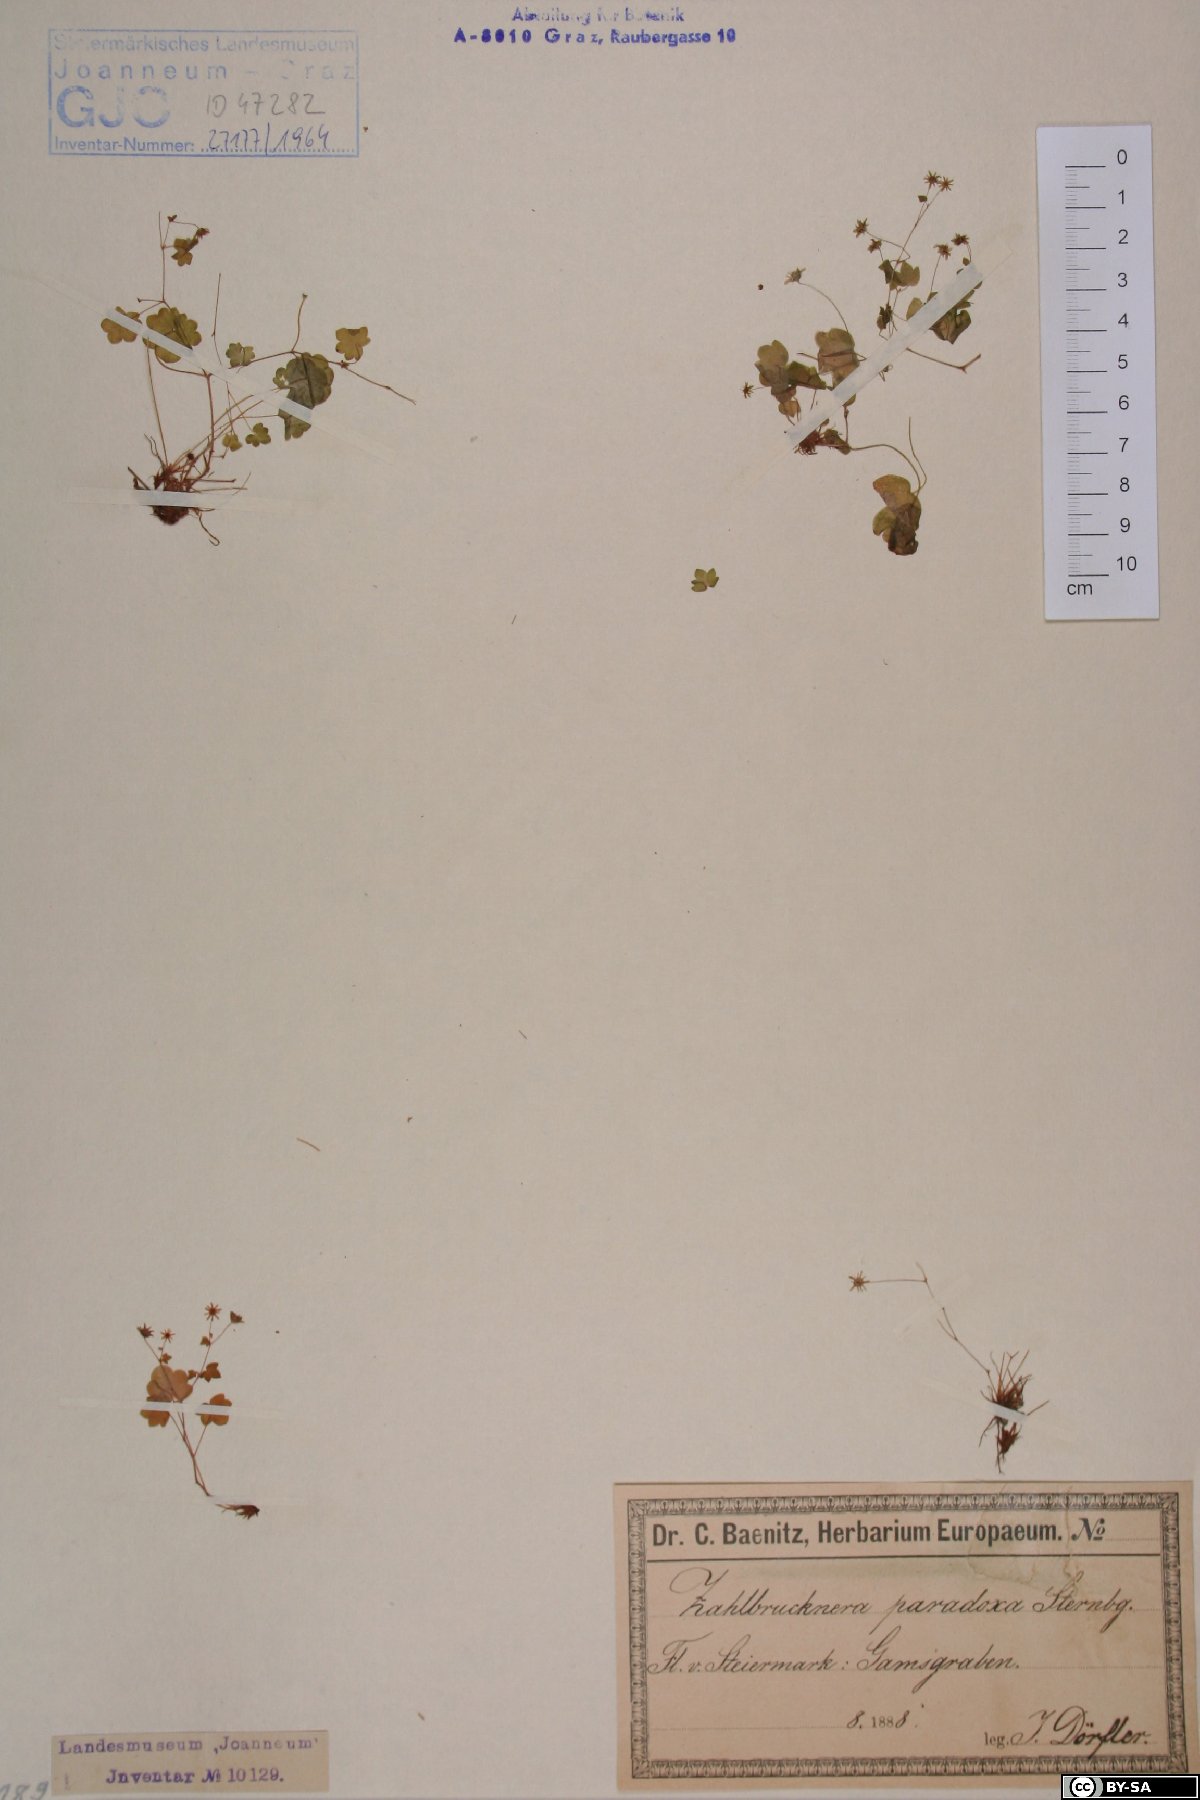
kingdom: Plantae
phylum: Tracheophyta
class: Magnoliopsida
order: Saxifragales
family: Saxifragaceae
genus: Saxifraga
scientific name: Saxifraga paradoxa
